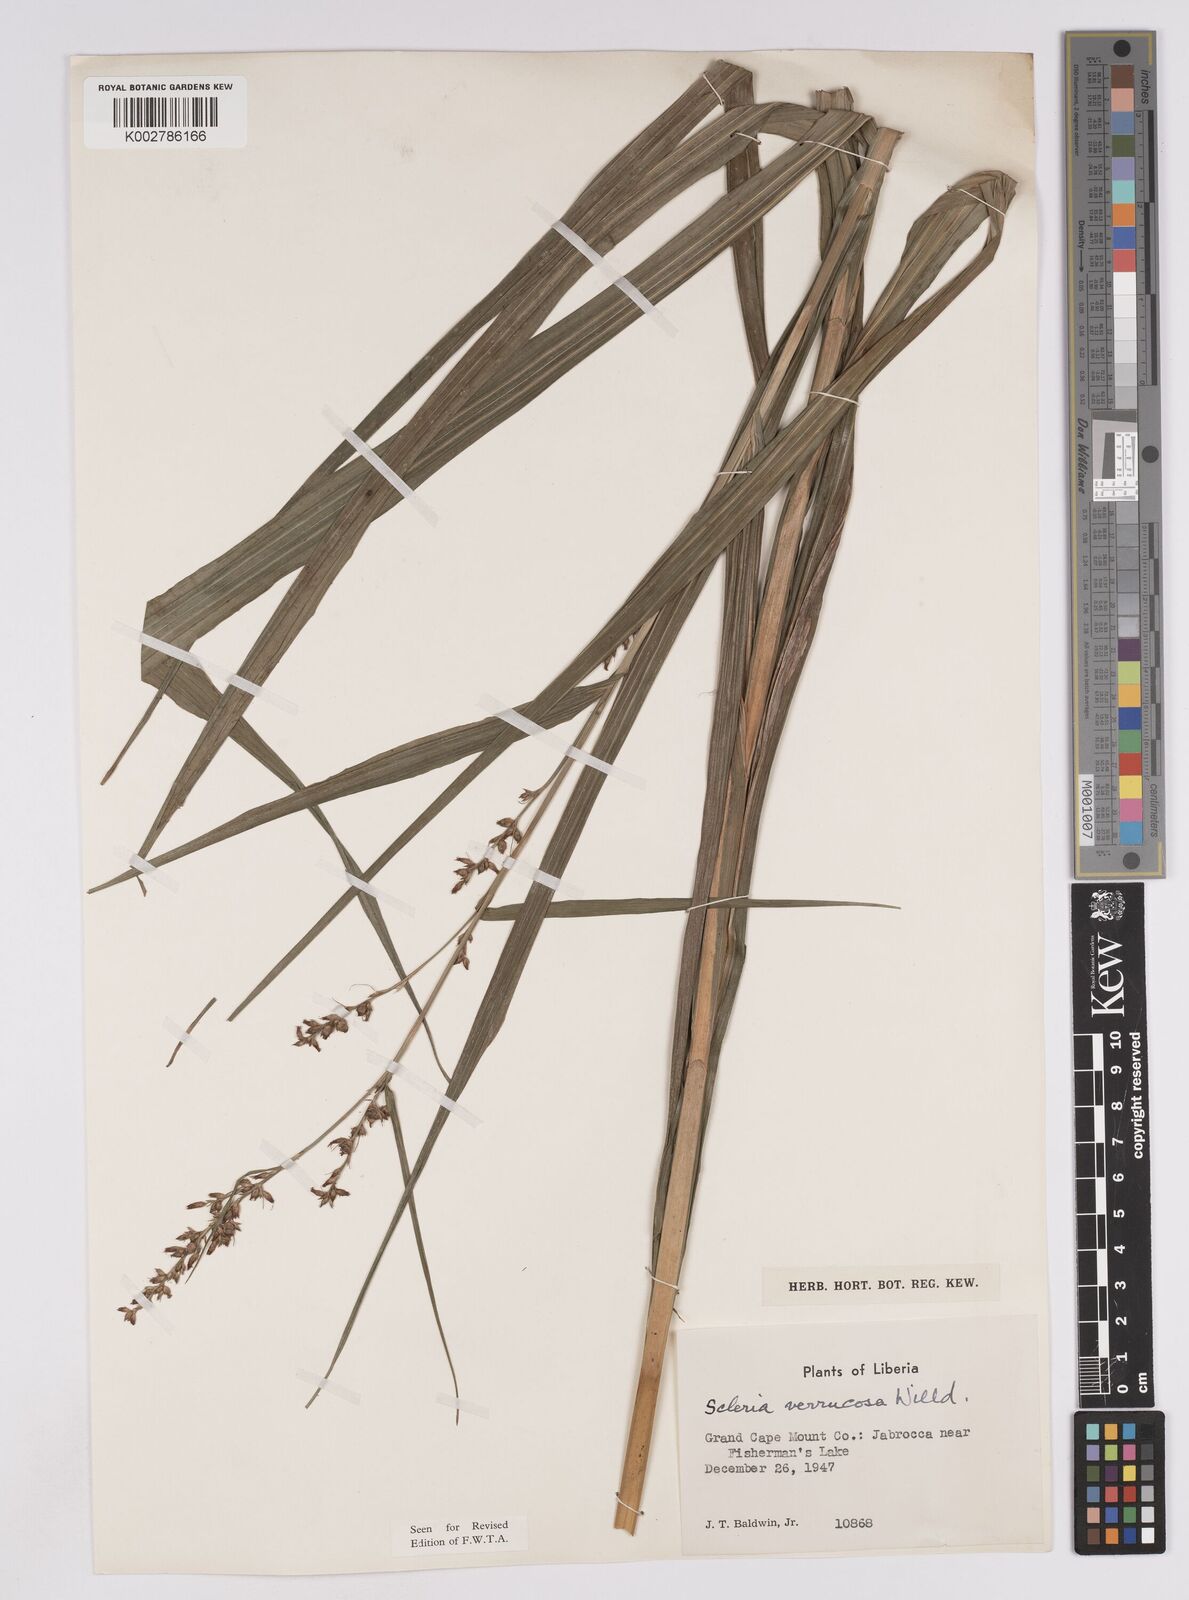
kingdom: Plantae
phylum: Tracheophyta
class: Liliopsida
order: Poales
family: Cyperaceae
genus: Scleria
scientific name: Scleria verrucosa
